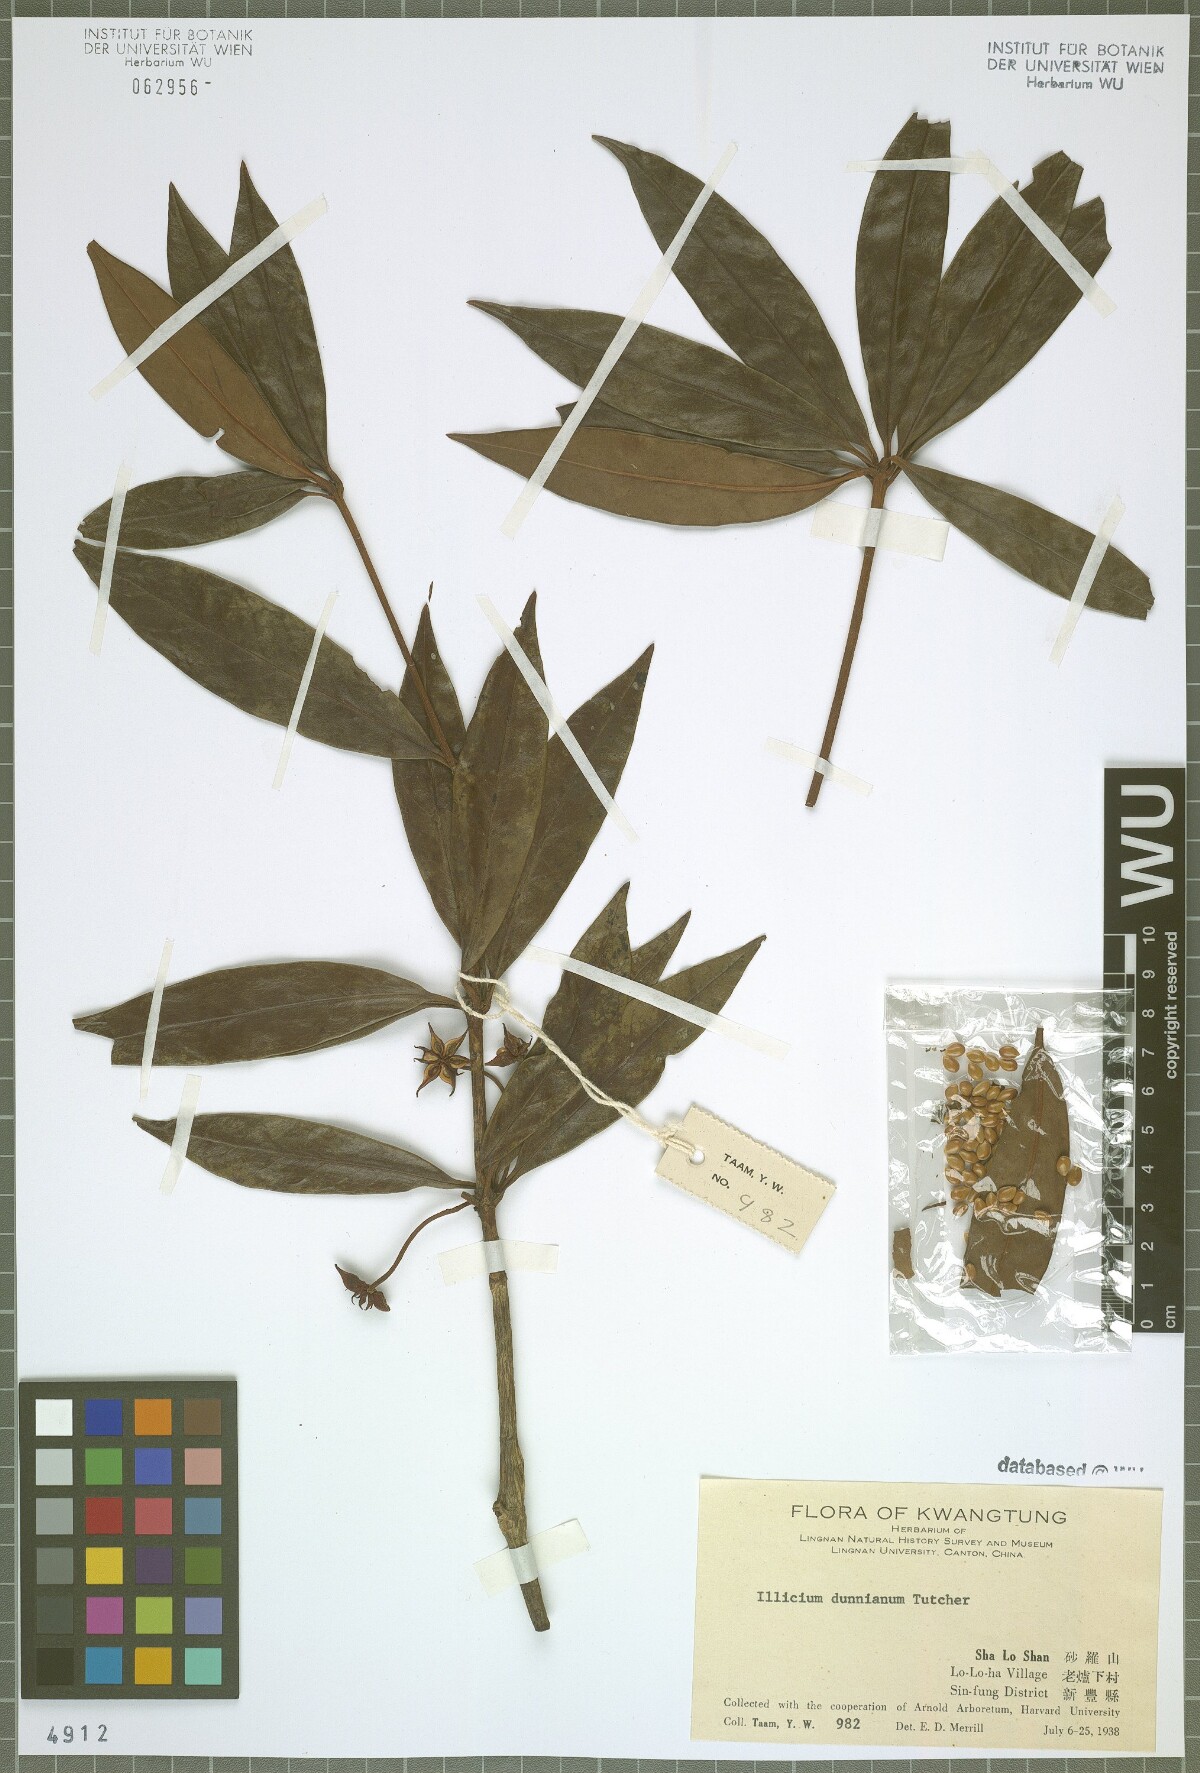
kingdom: Plantae
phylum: Tracheophyta
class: Magnoliopsida
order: Austrobaileyales
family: Schisandraceae
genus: Illicium
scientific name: Illicium dunnianum
